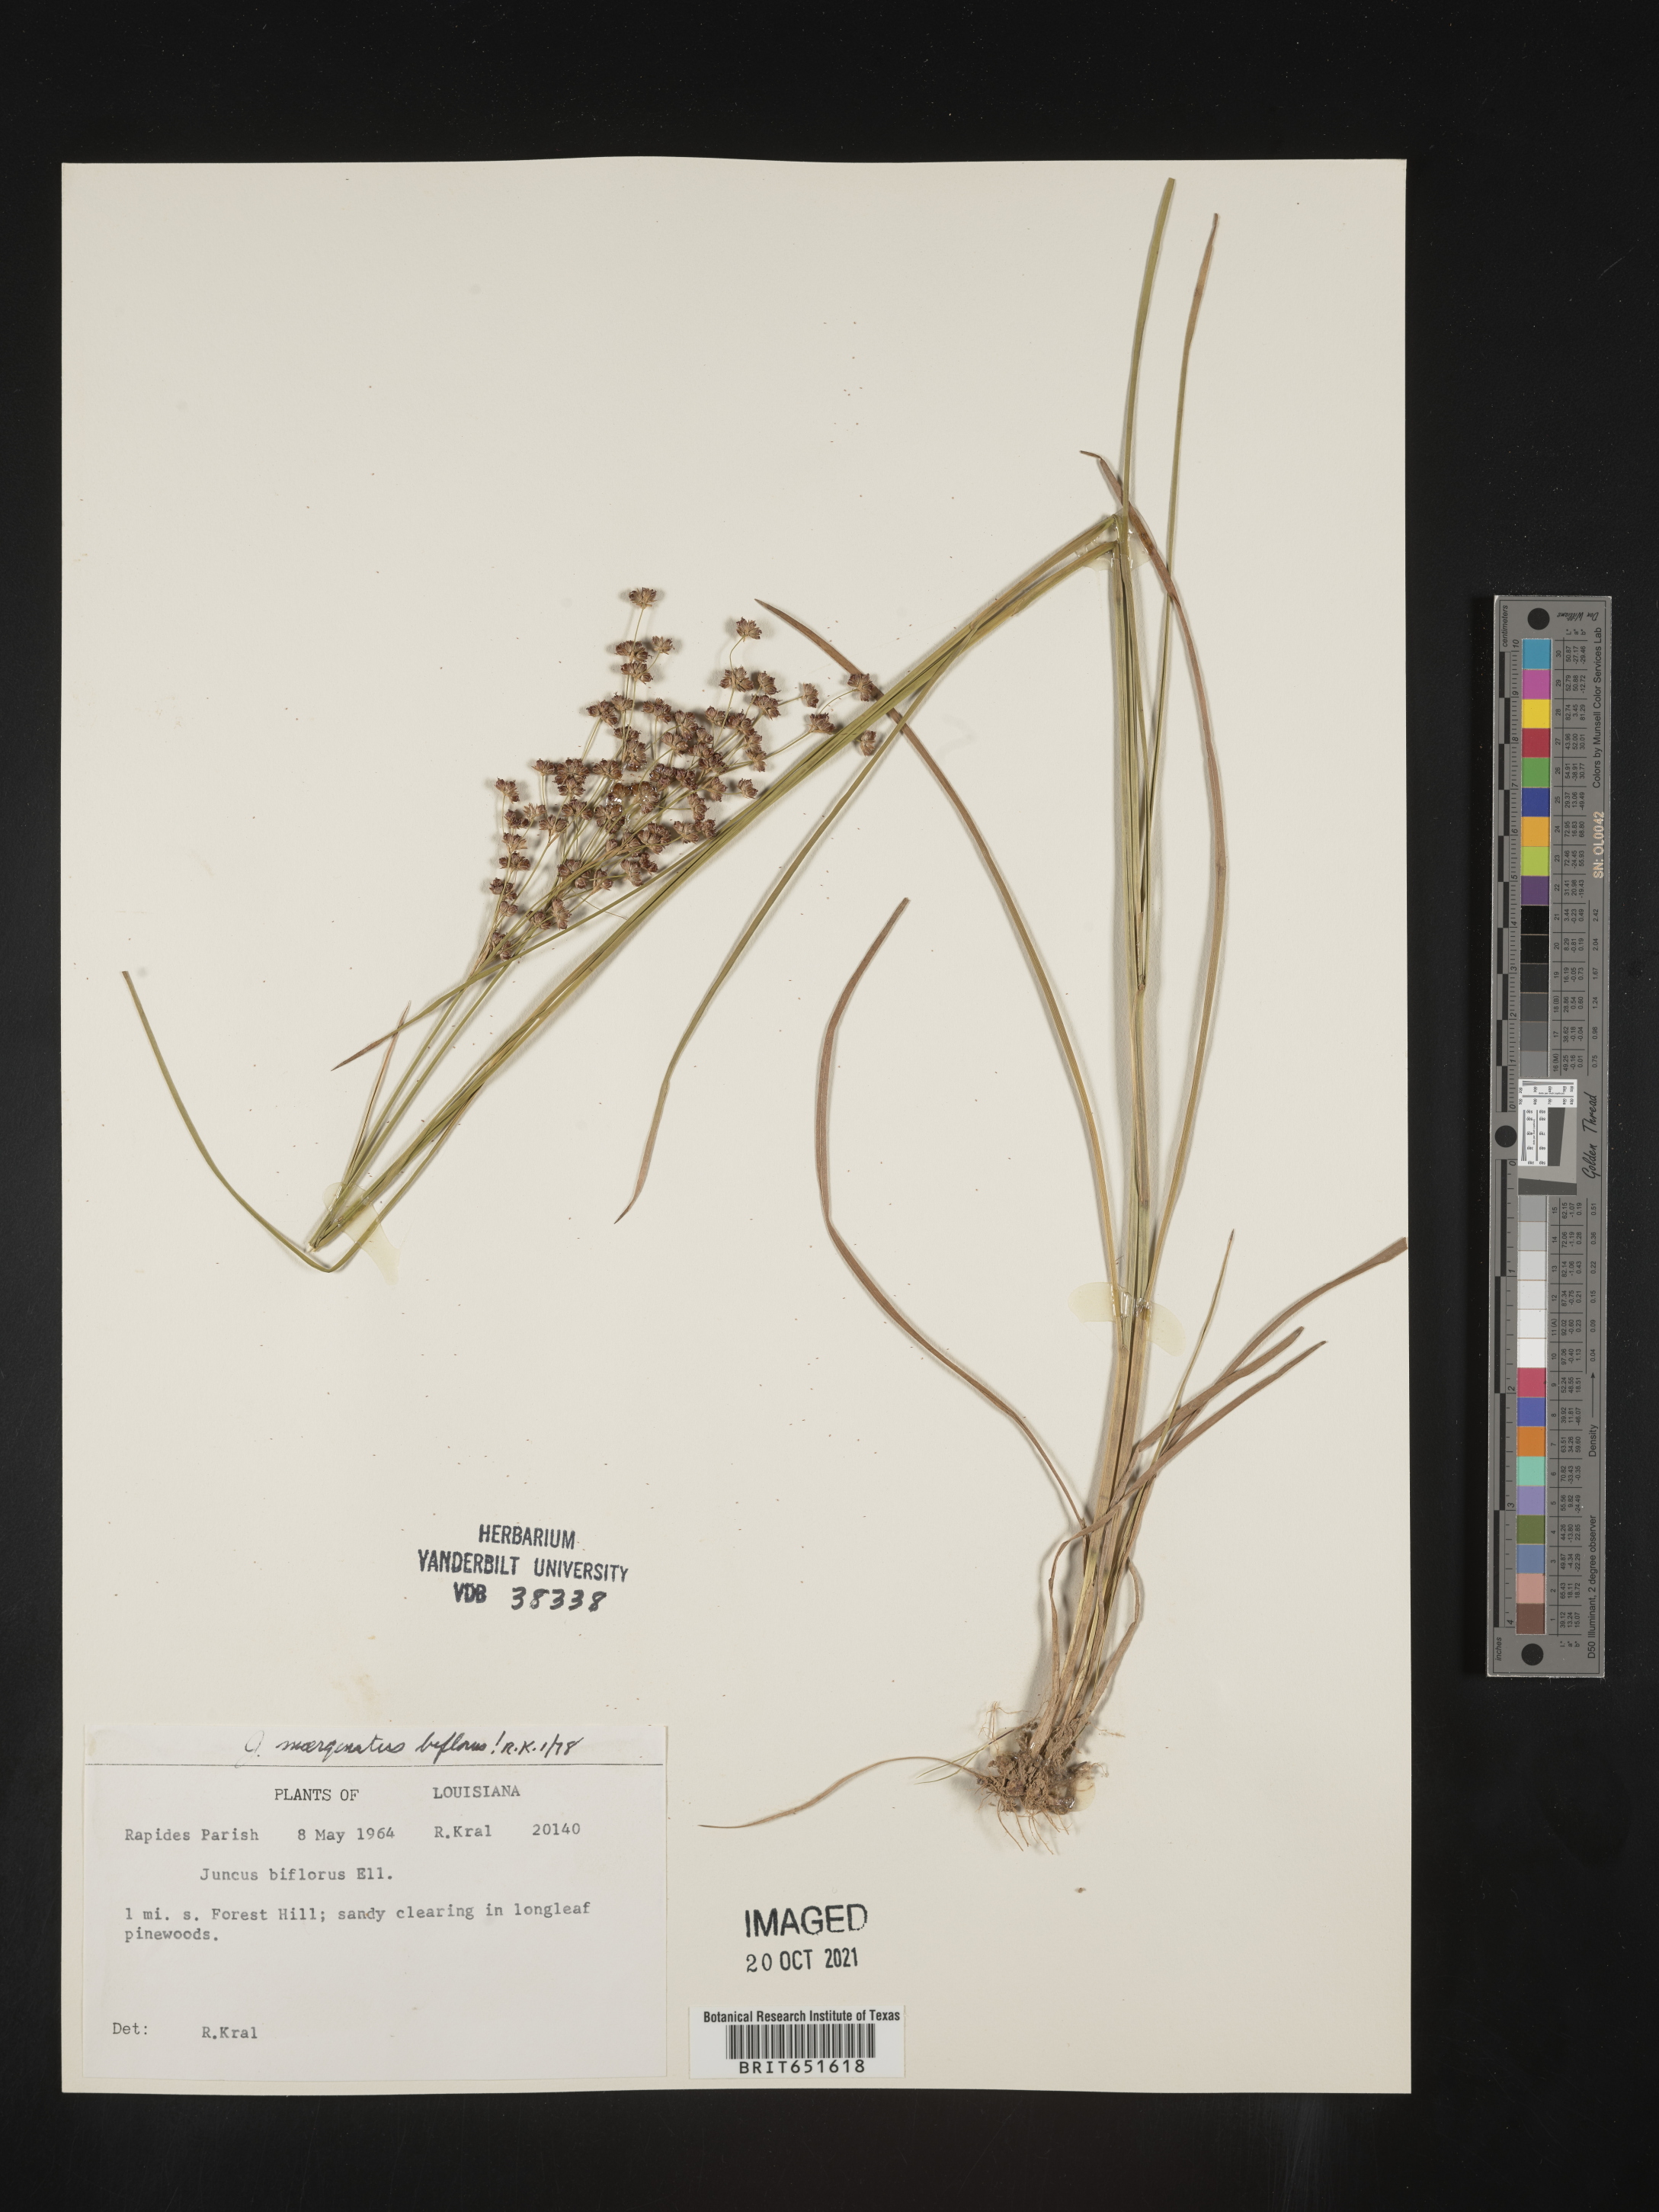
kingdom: Plantae
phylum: Tracheophyta
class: Liliopsida
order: Poales
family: Juncaceae
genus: Juncus
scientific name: Juncus biflorus
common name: Two-flowered rush
